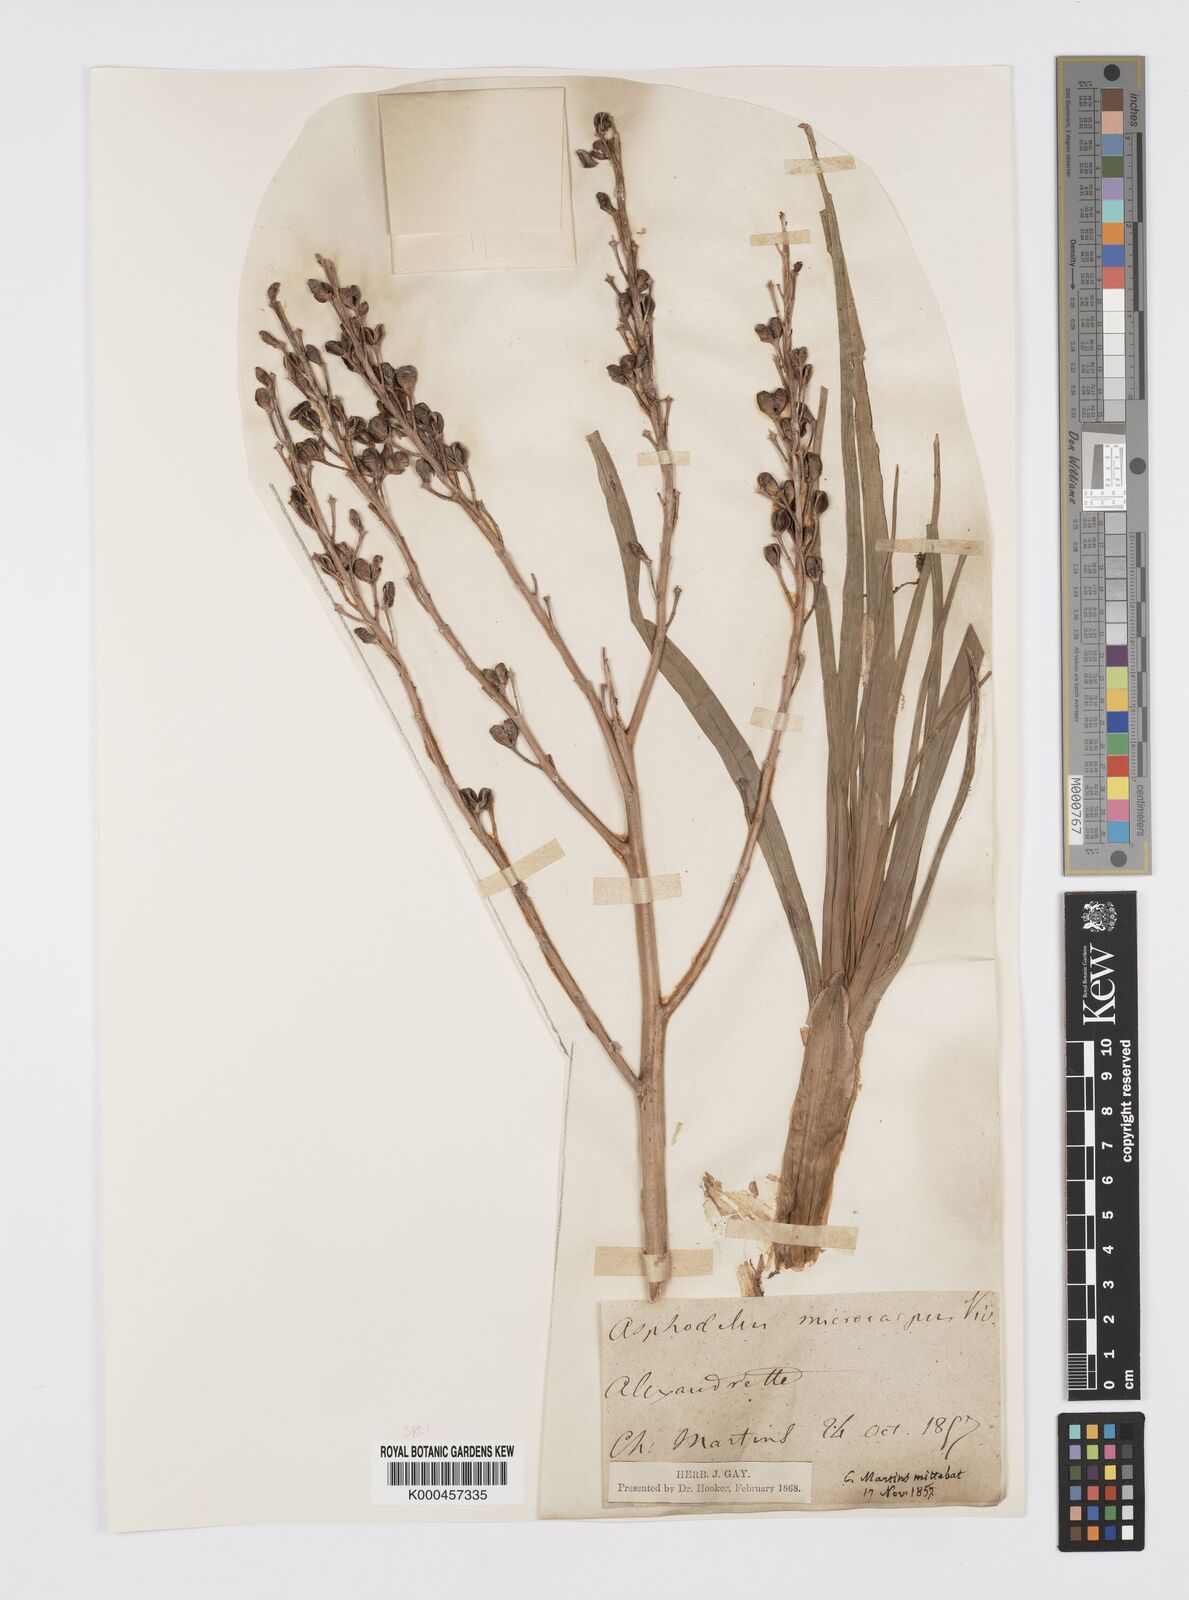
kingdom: Plantae
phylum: Tracheophyta
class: Liliopsida
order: Asparagales
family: Asphodelaceae
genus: Asphodelus
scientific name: Asphodelus aestivus
